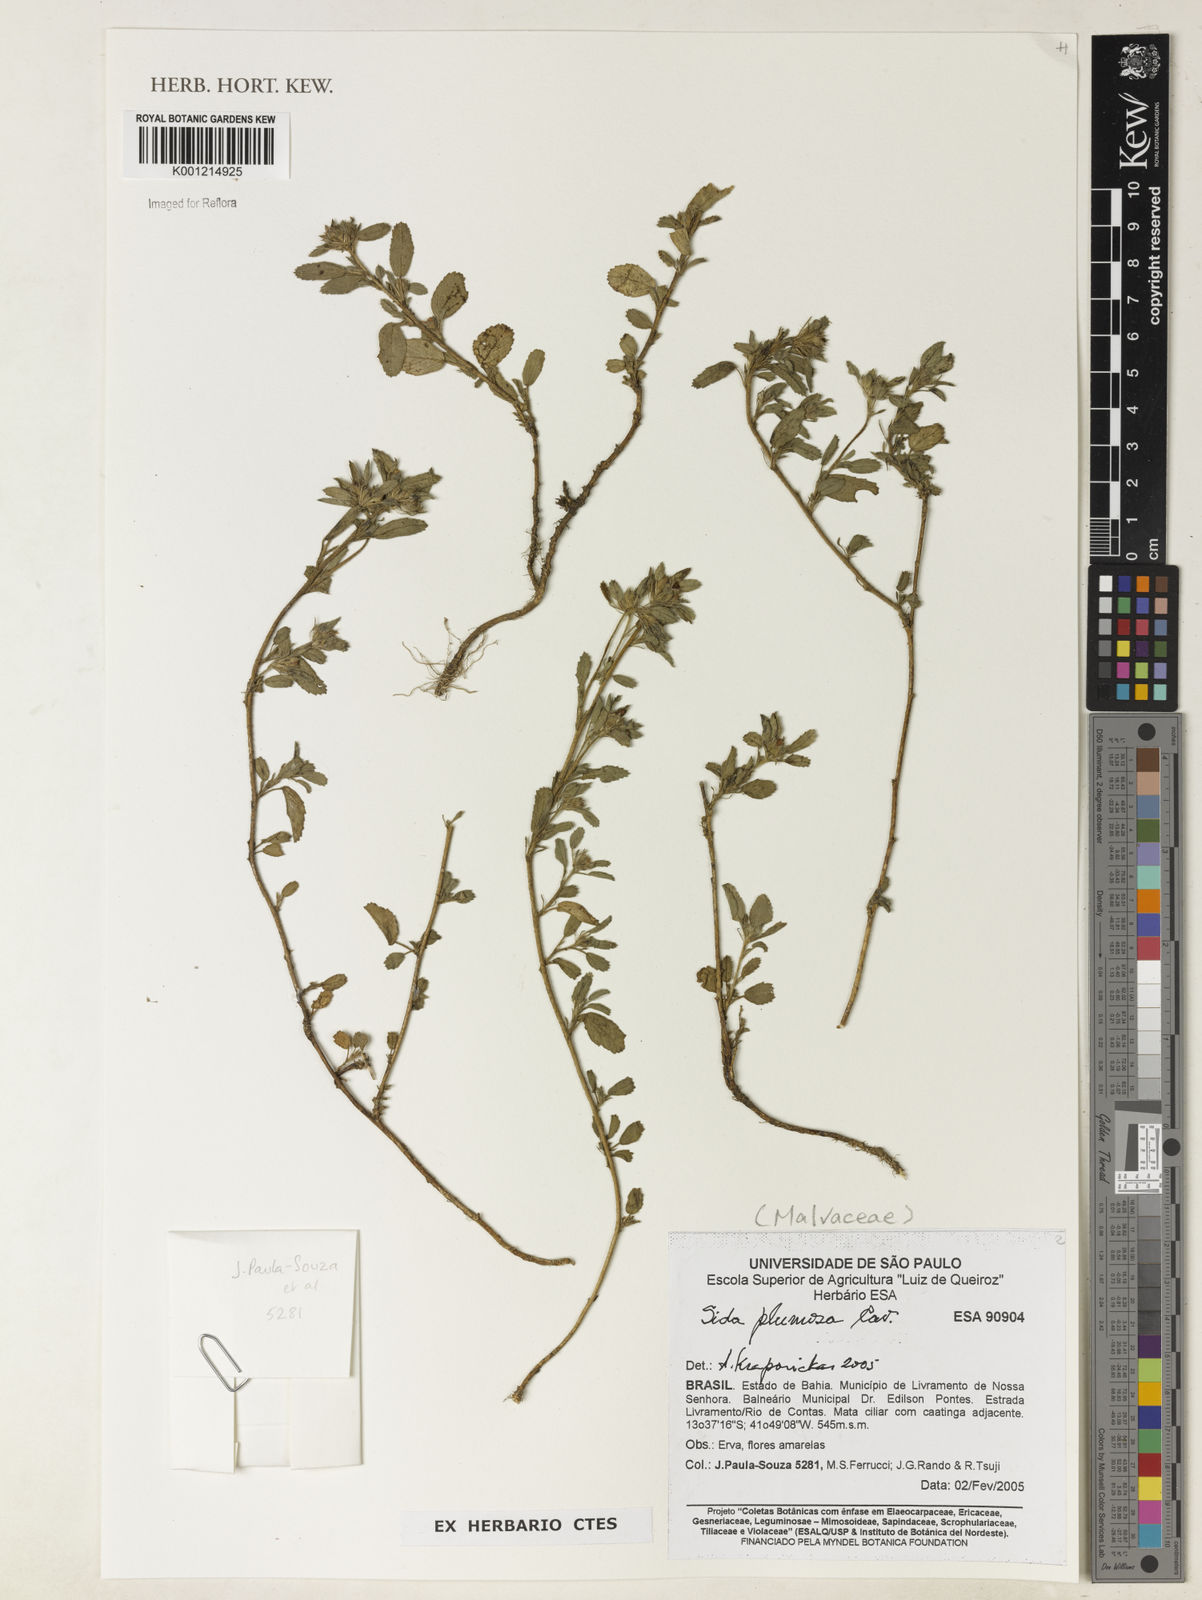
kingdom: Plantae
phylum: Tracheophyta
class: Magnoliopsida
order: Malvales
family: Malvaceae
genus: Sida
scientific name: Sida ciliaris
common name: Bracted fanpetals
